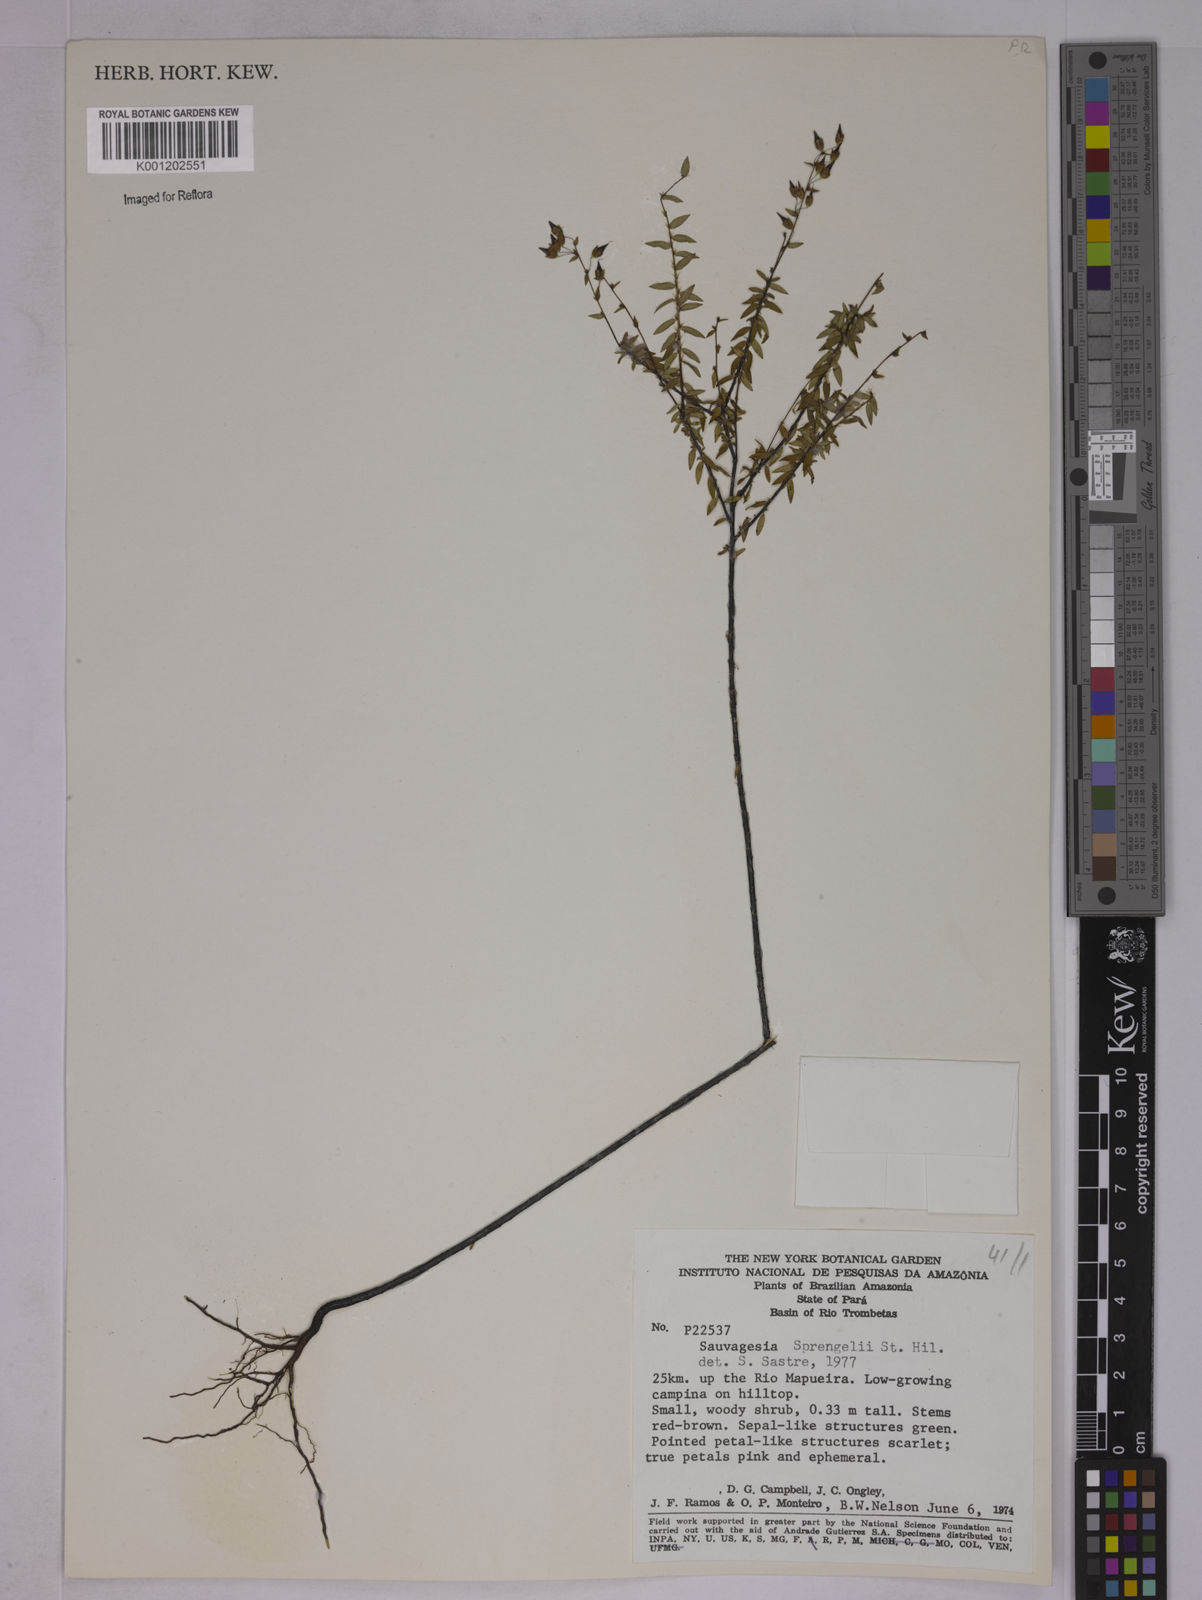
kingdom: Plantae
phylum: Tracheophyta
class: Magnoliopsida
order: Malpighiales
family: Ochnaceae
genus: Sauvagesia
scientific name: Sauvagesia sprengelii
